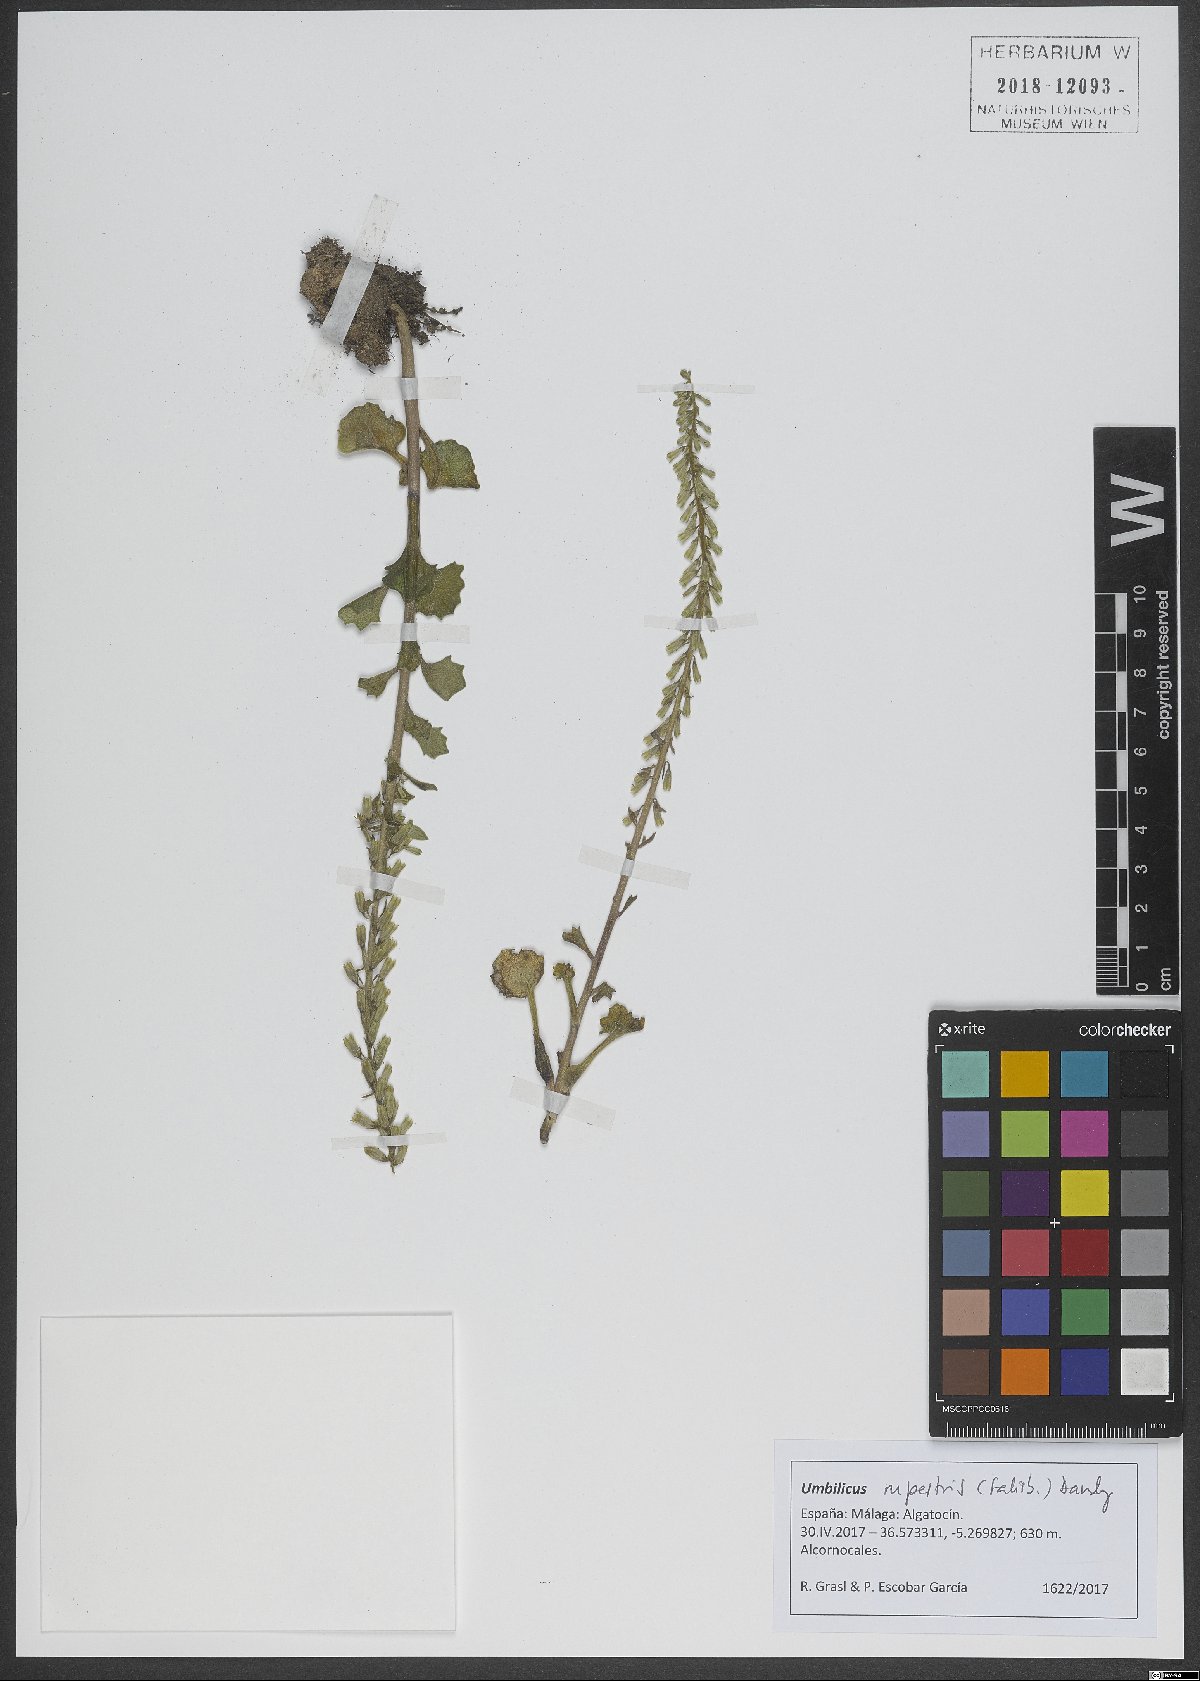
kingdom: Plantae
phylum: Tracheophyta
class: Magnoliopsida
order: Saxifragales
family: Crassulaceae
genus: Umbilicus
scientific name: Umbilicus rupestris
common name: Navelwort
